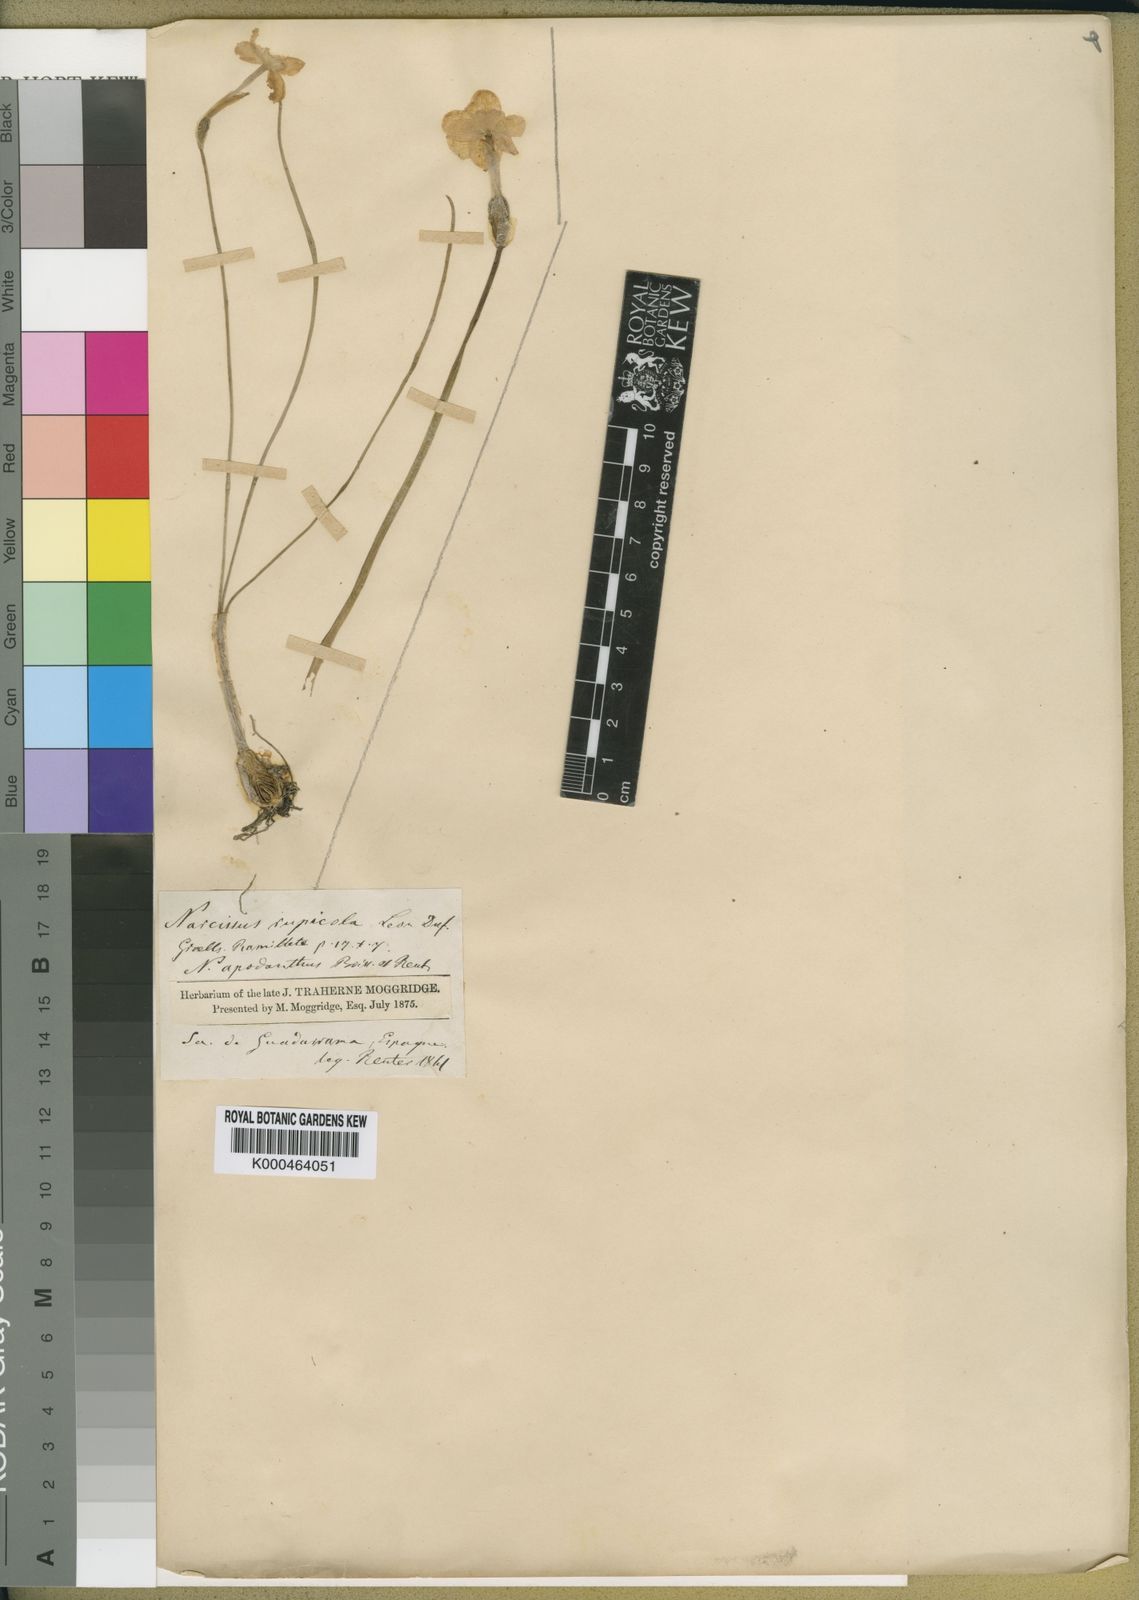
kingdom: Plantae
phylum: Tracheophyta
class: Liliopsida
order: Asparagales
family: Amaryllidaceae
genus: Narcissus
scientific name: Narcissus rupicola
